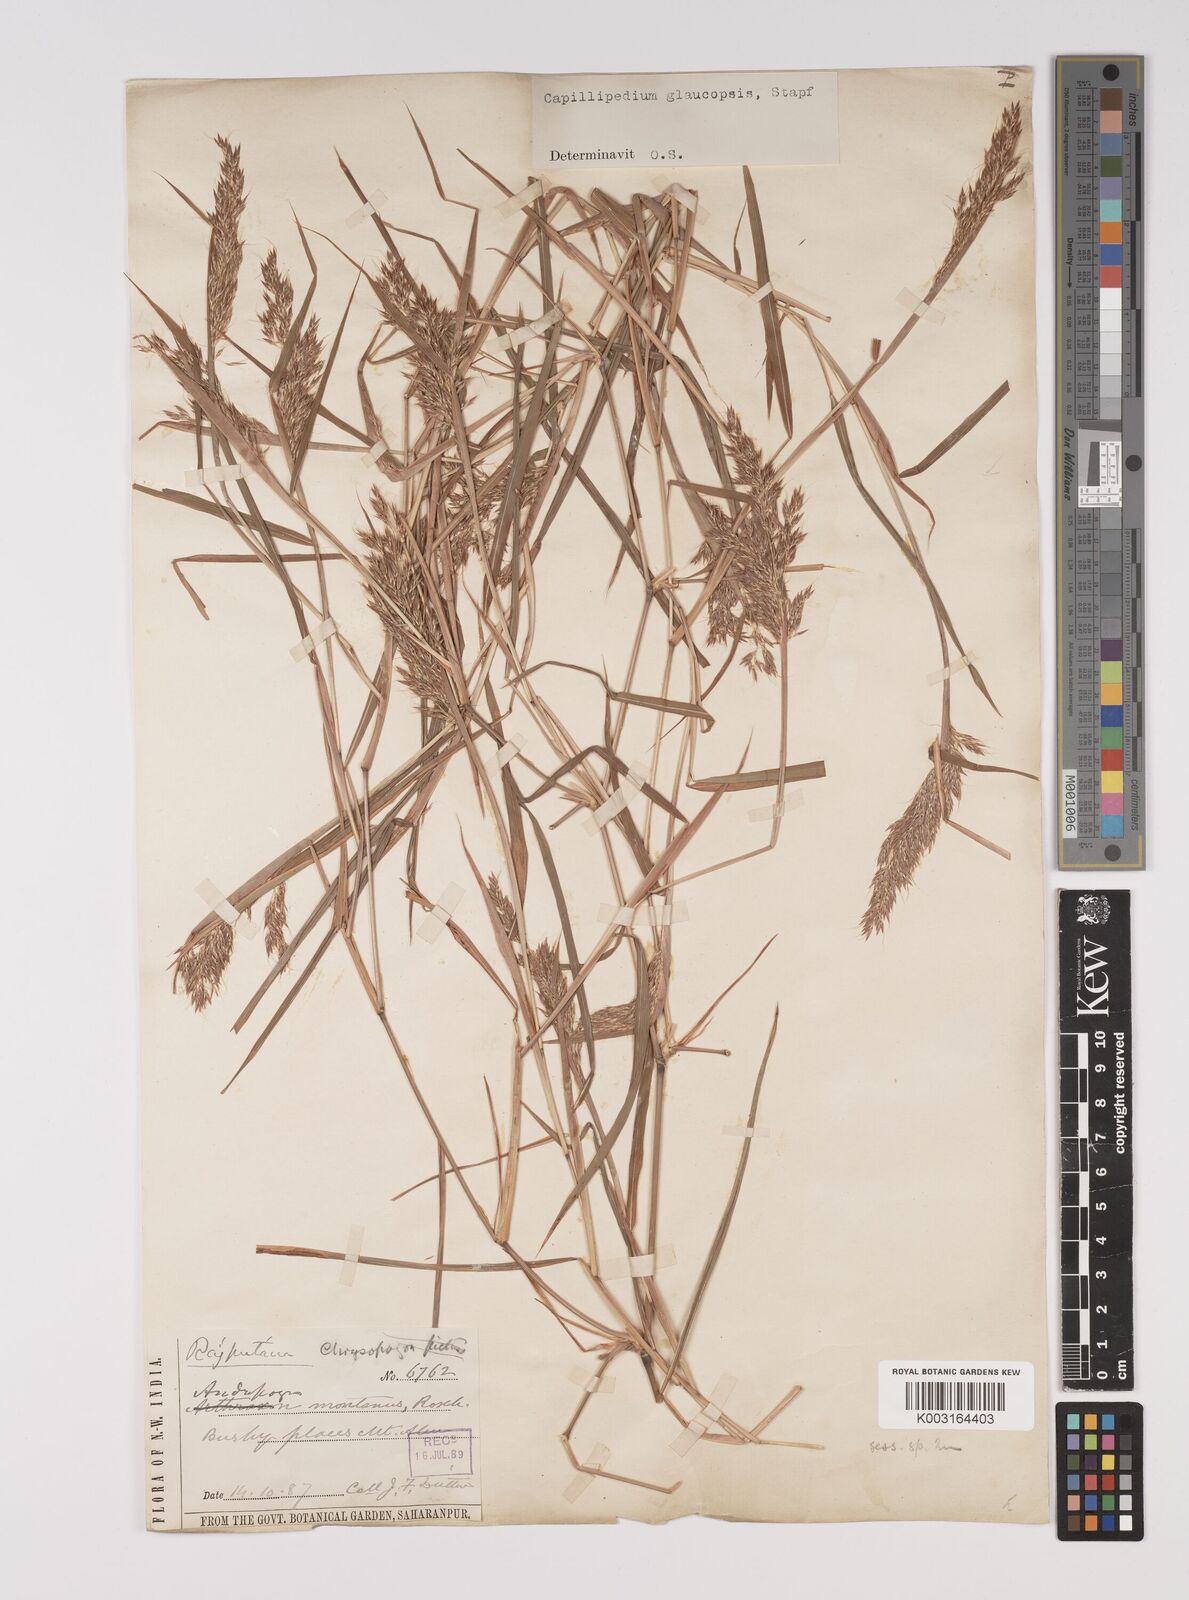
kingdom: Plantae
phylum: Tracheophyta
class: Liliopsida
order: Poales
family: Poaceae
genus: Capillipedium
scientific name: Capillipedium assimile
